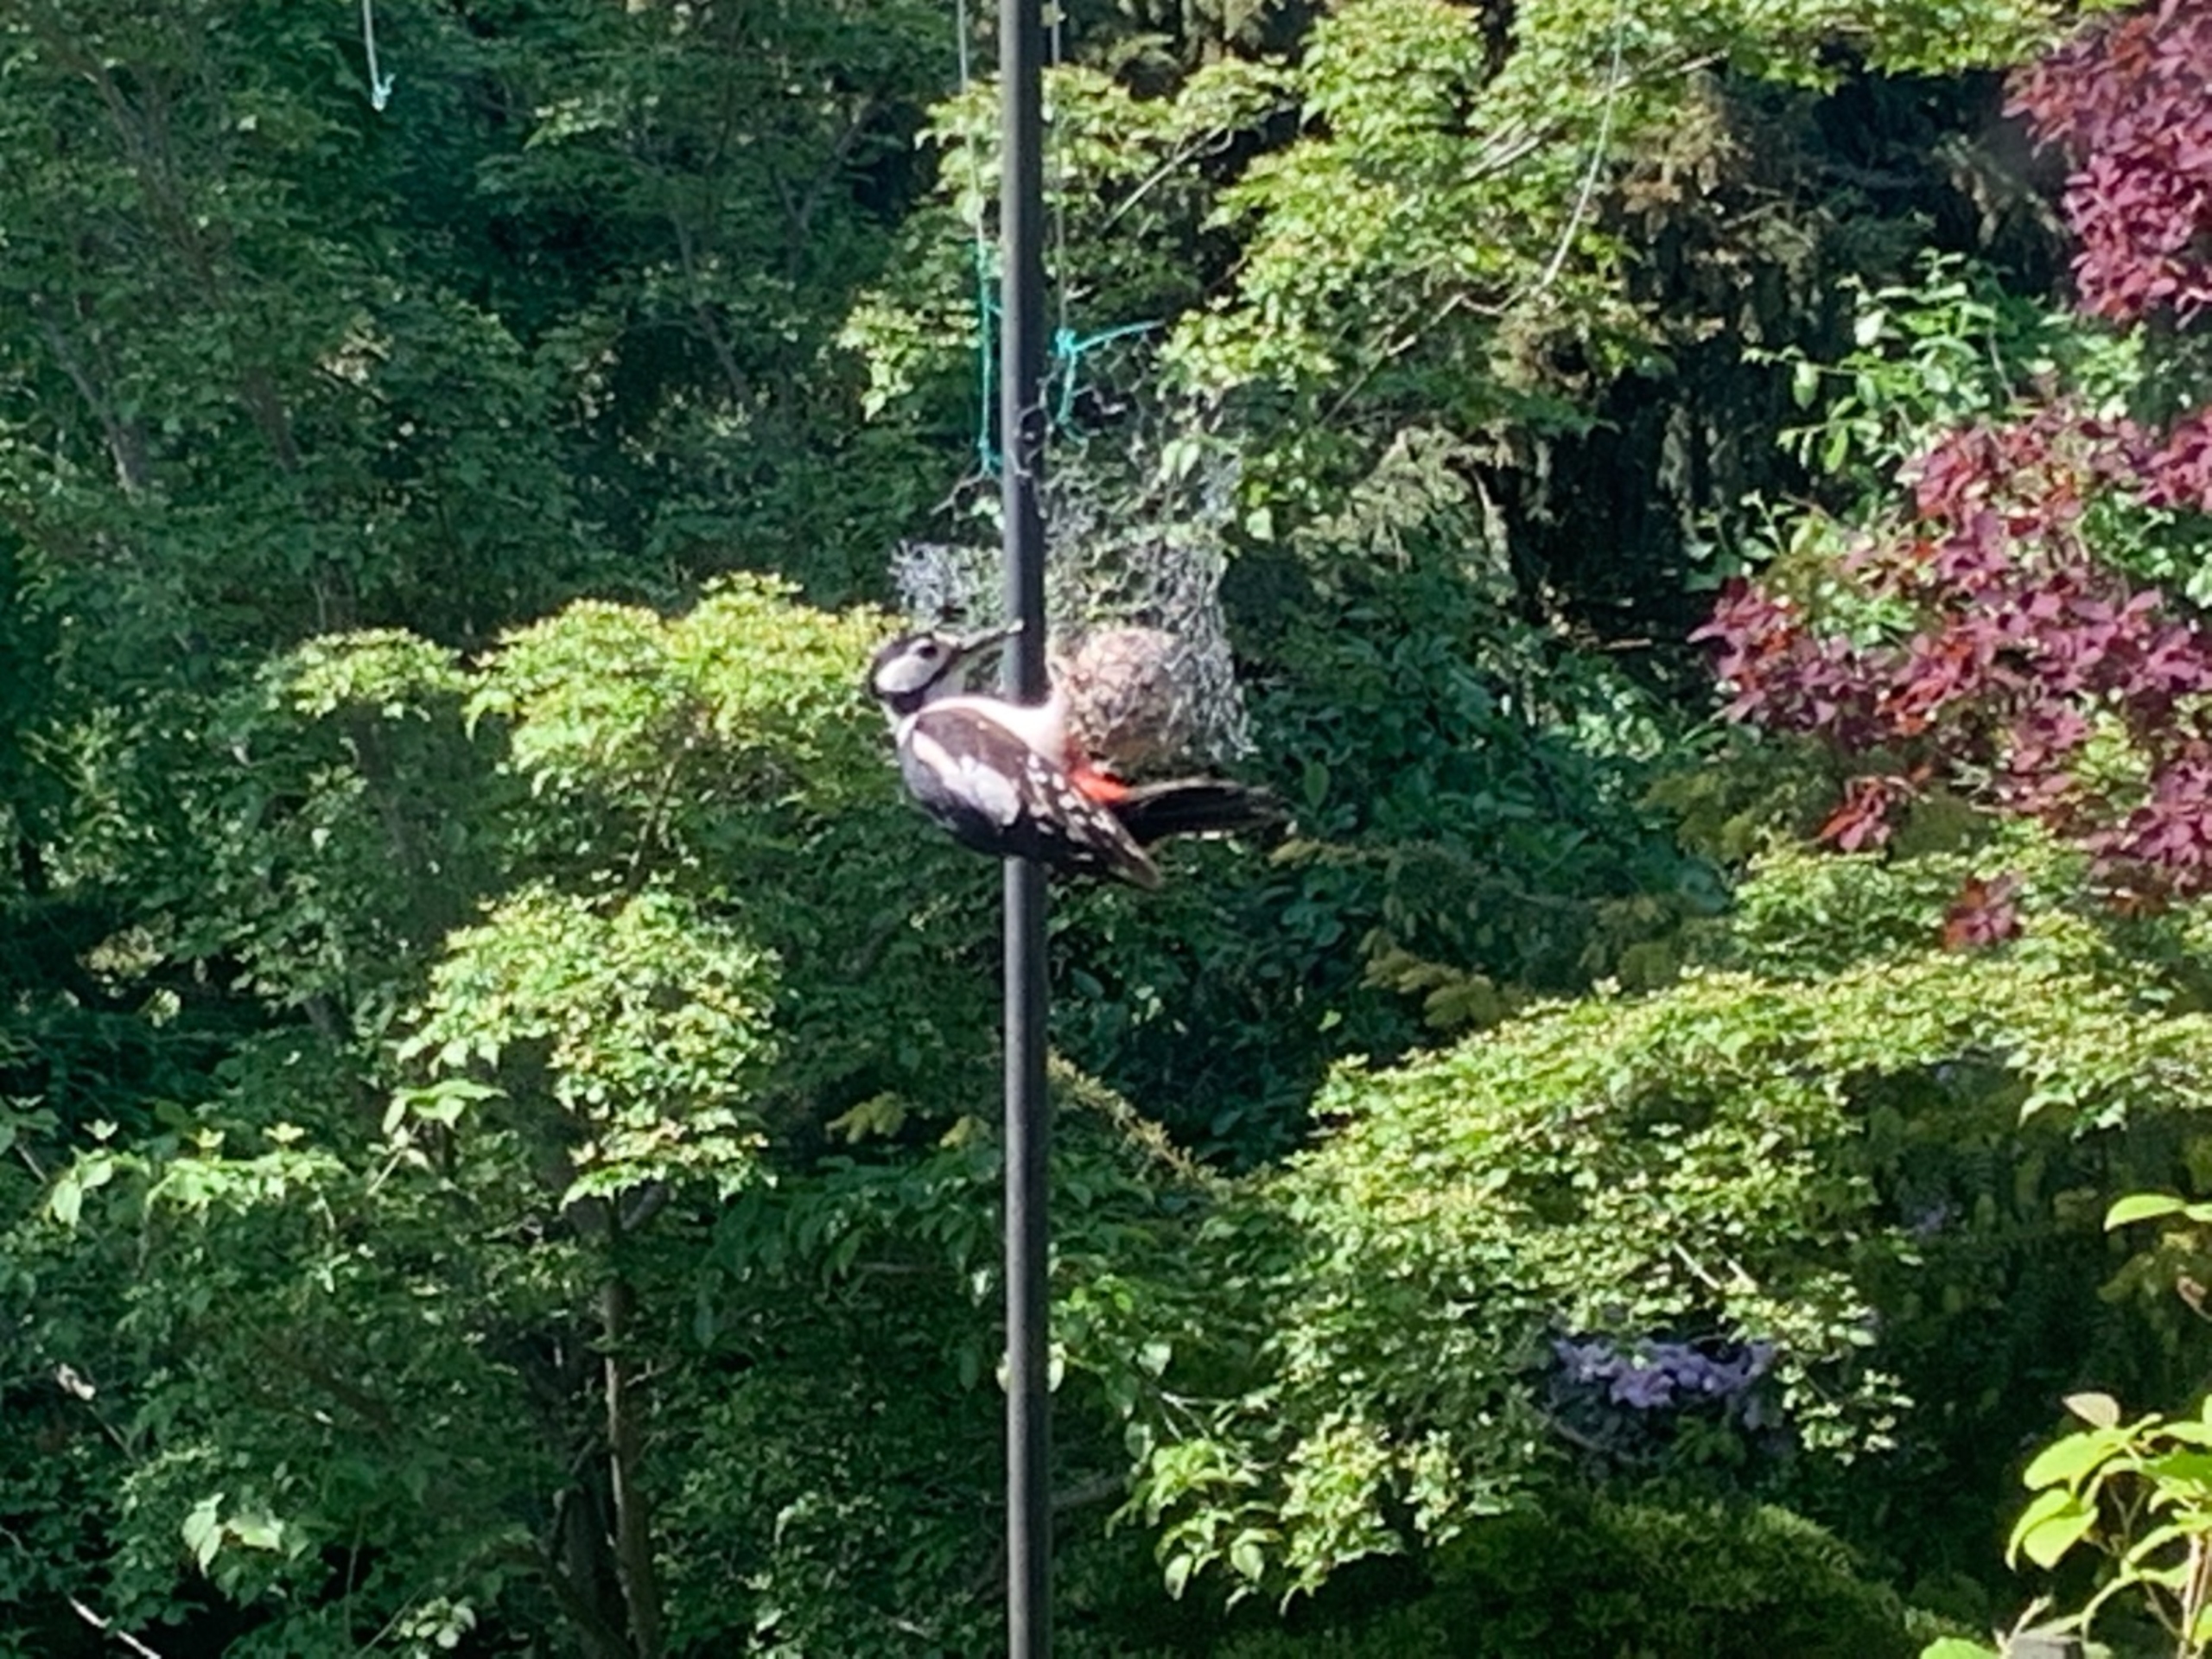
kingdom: Animalia
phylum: Chordata
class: Aves
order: Piciformes
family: Picidae
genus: Dendrocopos
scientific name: Dendrocopos major
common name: Stor flagspætte
